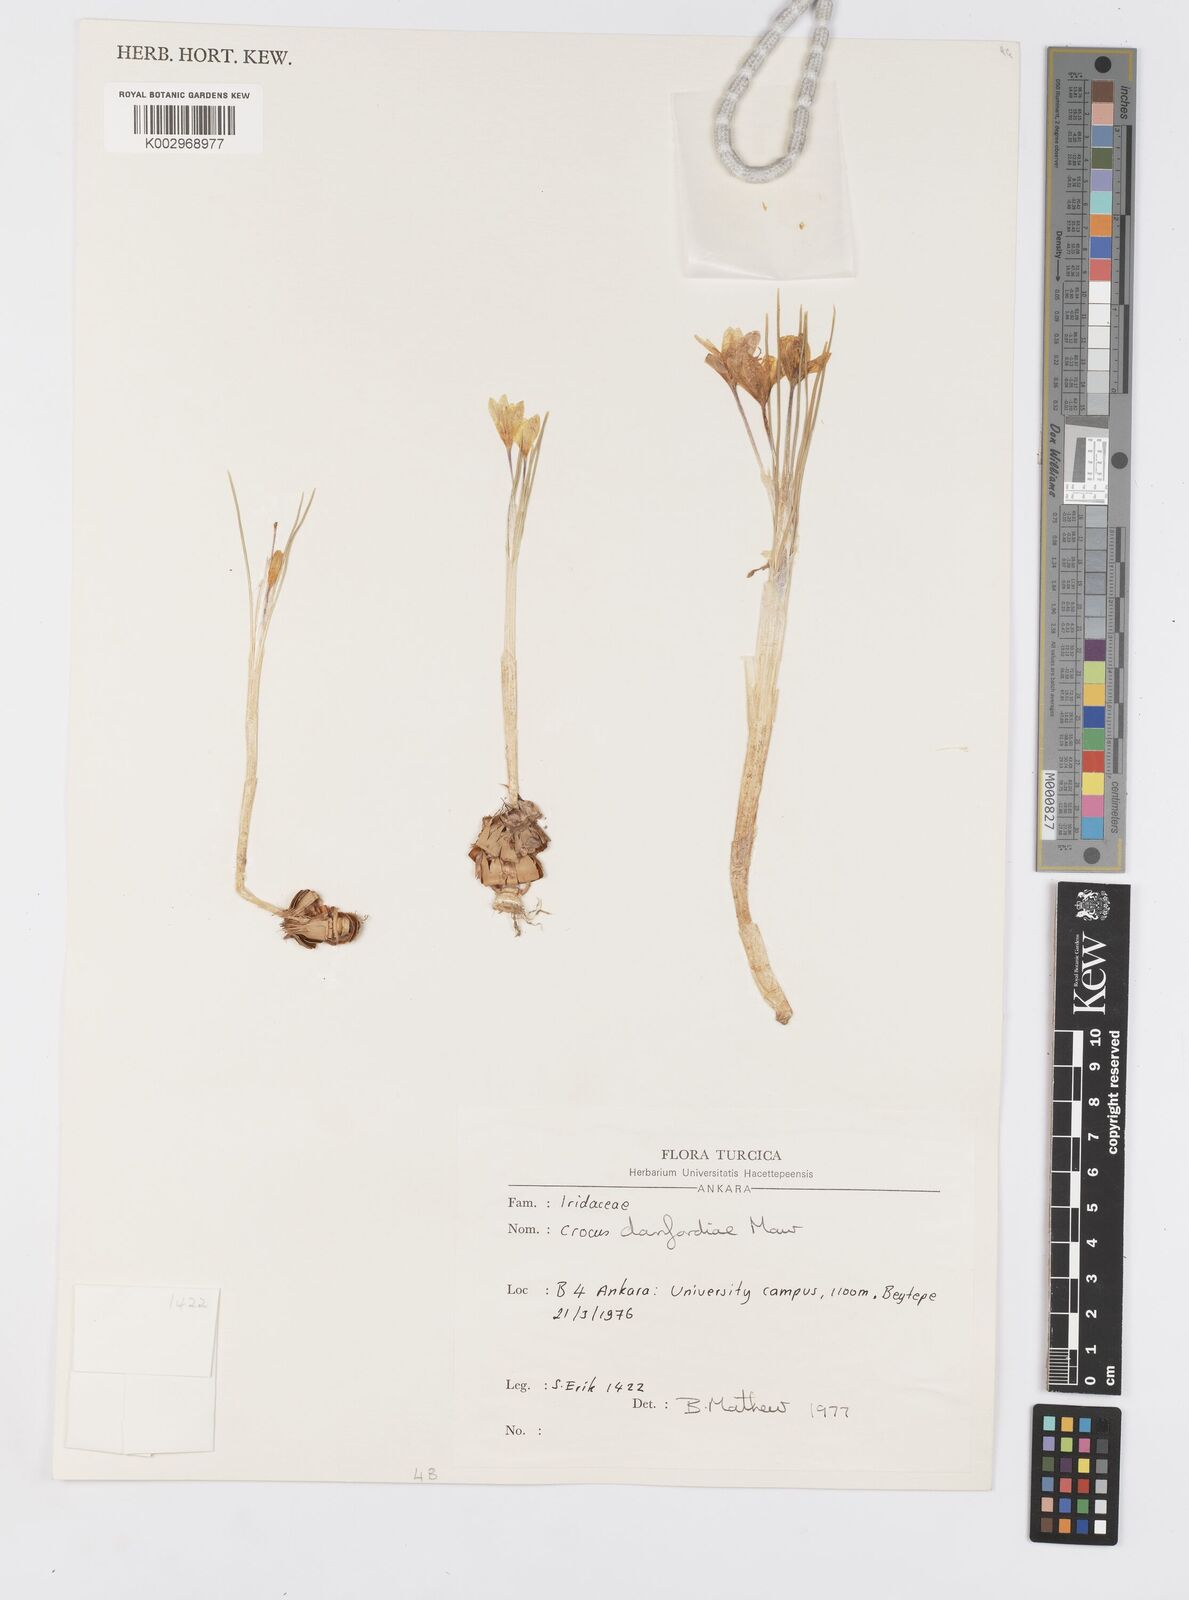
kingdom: Plantae
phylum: Tracheophyta
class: Liliopsida
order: Asparagales
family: Iridaceae
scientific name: Iridaceae
